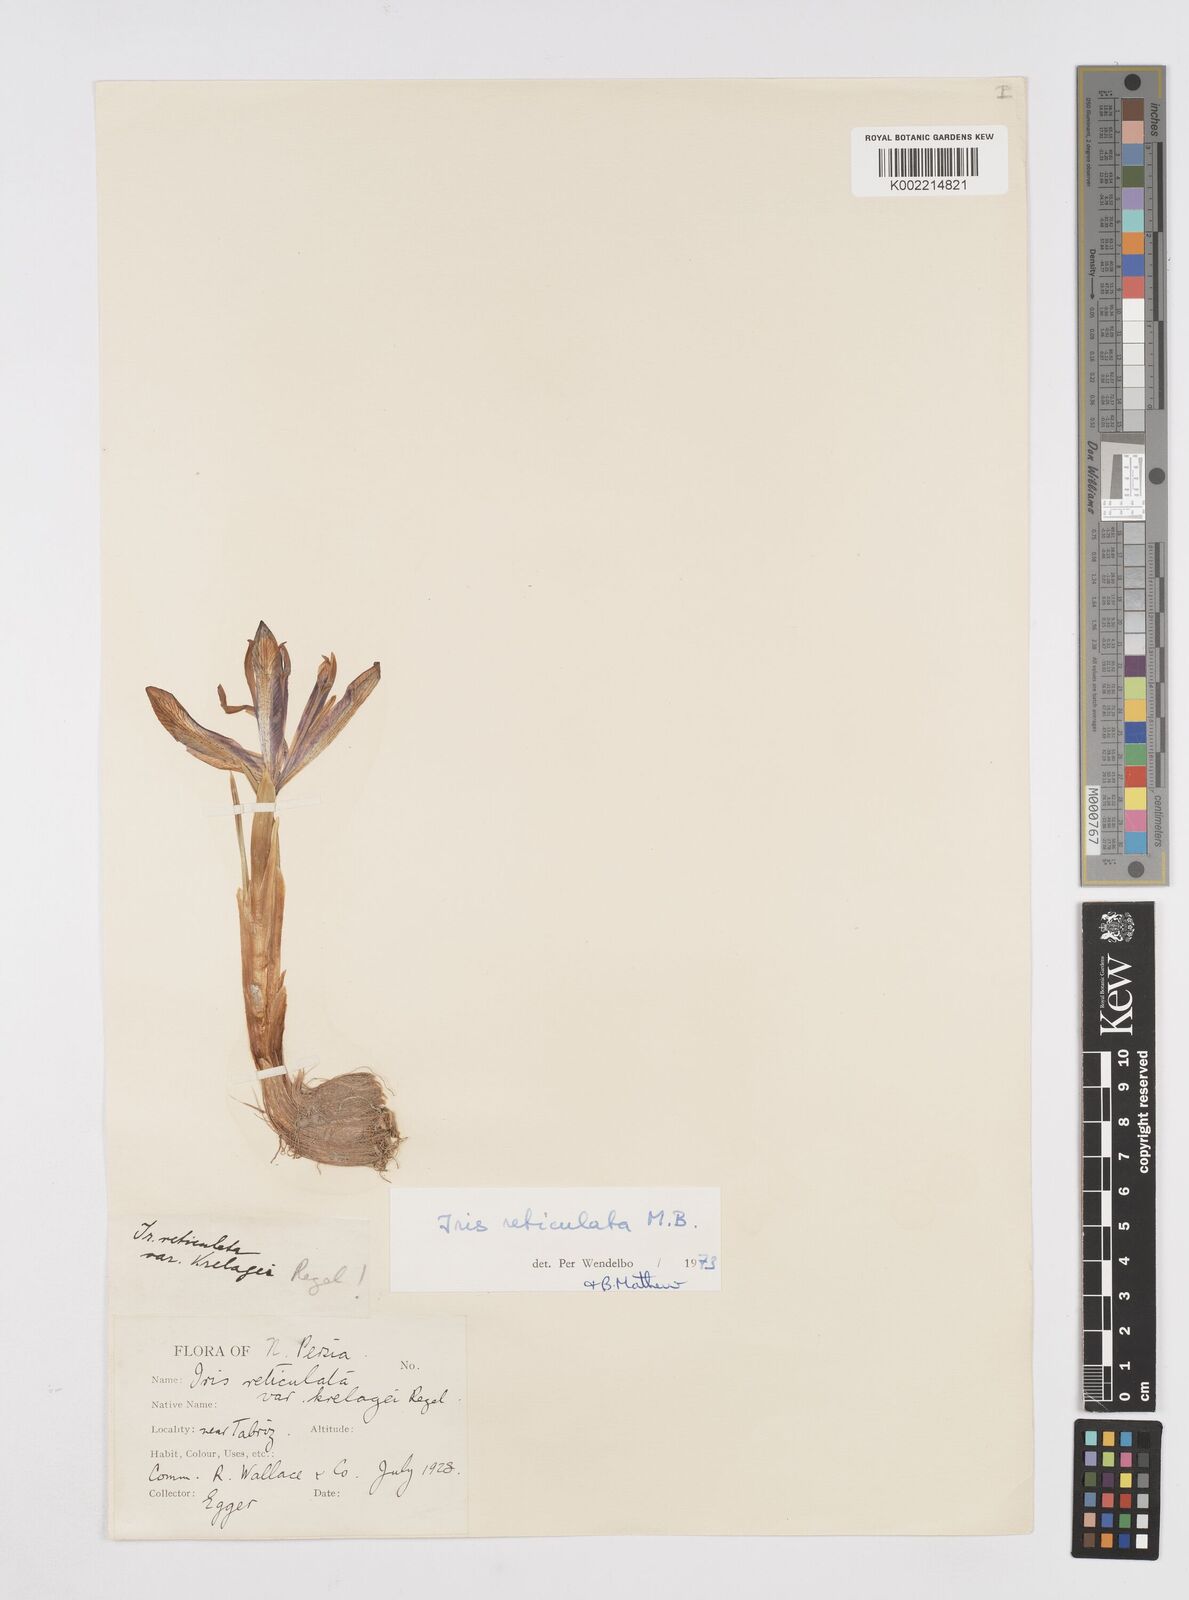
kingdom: Plantae
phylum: Tracheophyta
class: Liliopsida
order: Asparagales
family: Iridaceae
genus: Iris
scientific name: Iris reticulata
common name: Netted iris
